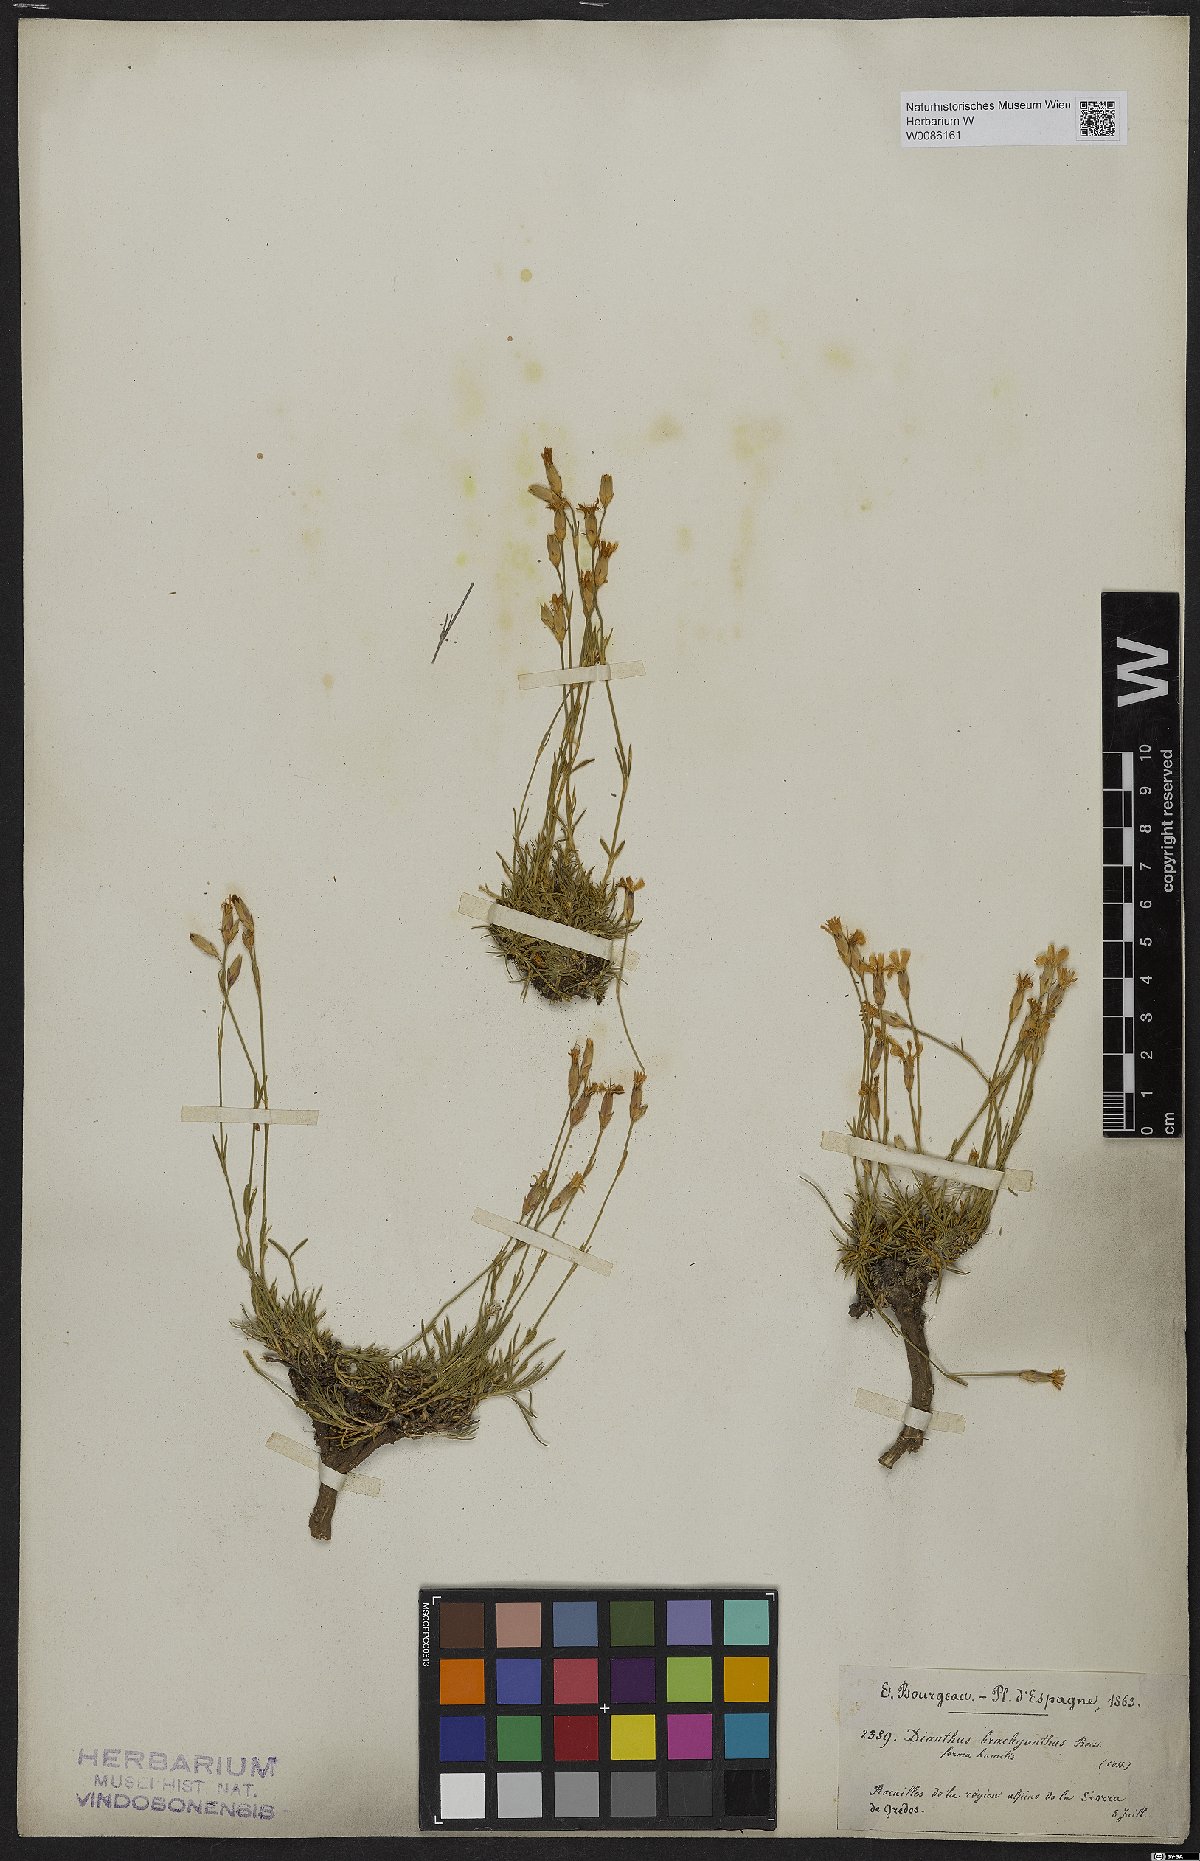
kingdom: Plantae
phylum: Tracheophyta
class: Magnoliopsida
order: Caryophyllales
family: Caryophyllaceae
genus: Dianthus
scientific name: Dianthus pungens
